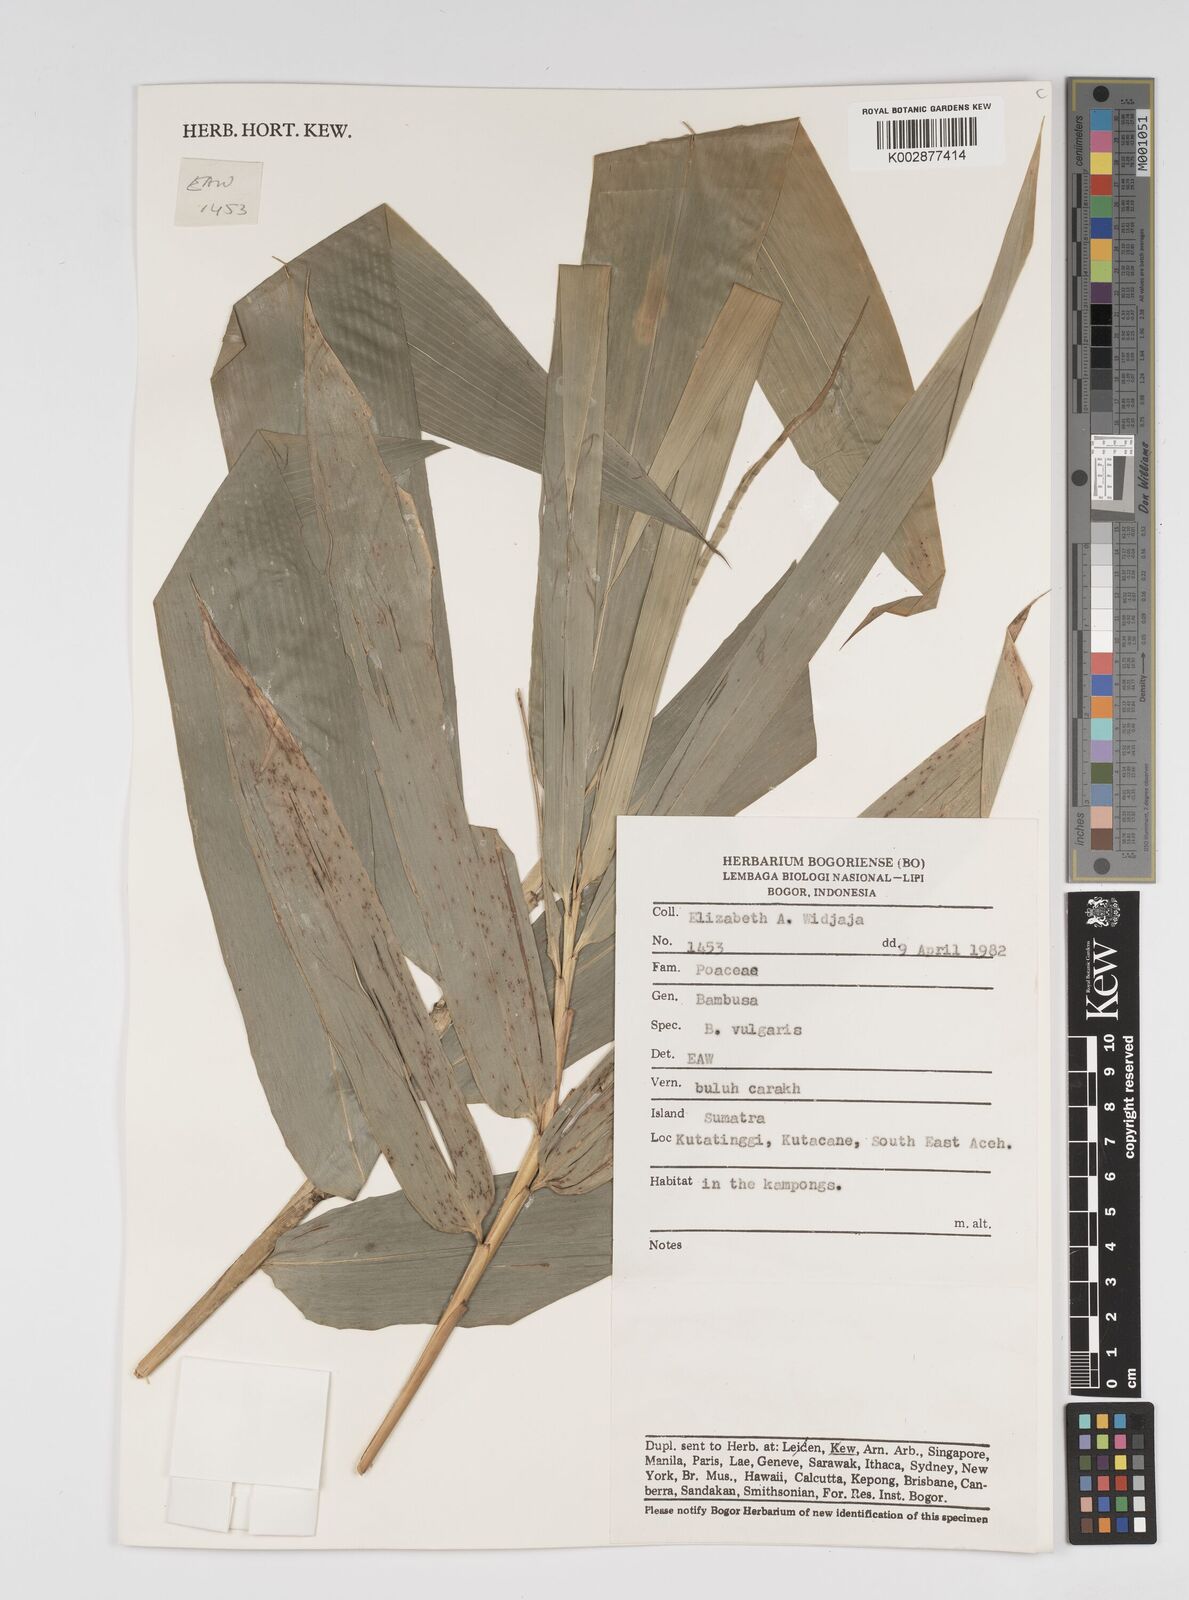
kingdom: Plantae
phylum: Tracheophyta
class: Liliopsida
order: Poales
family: Poaceae
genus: Bambusa
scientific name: Bambusa vulgaris
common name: Common bamboo
